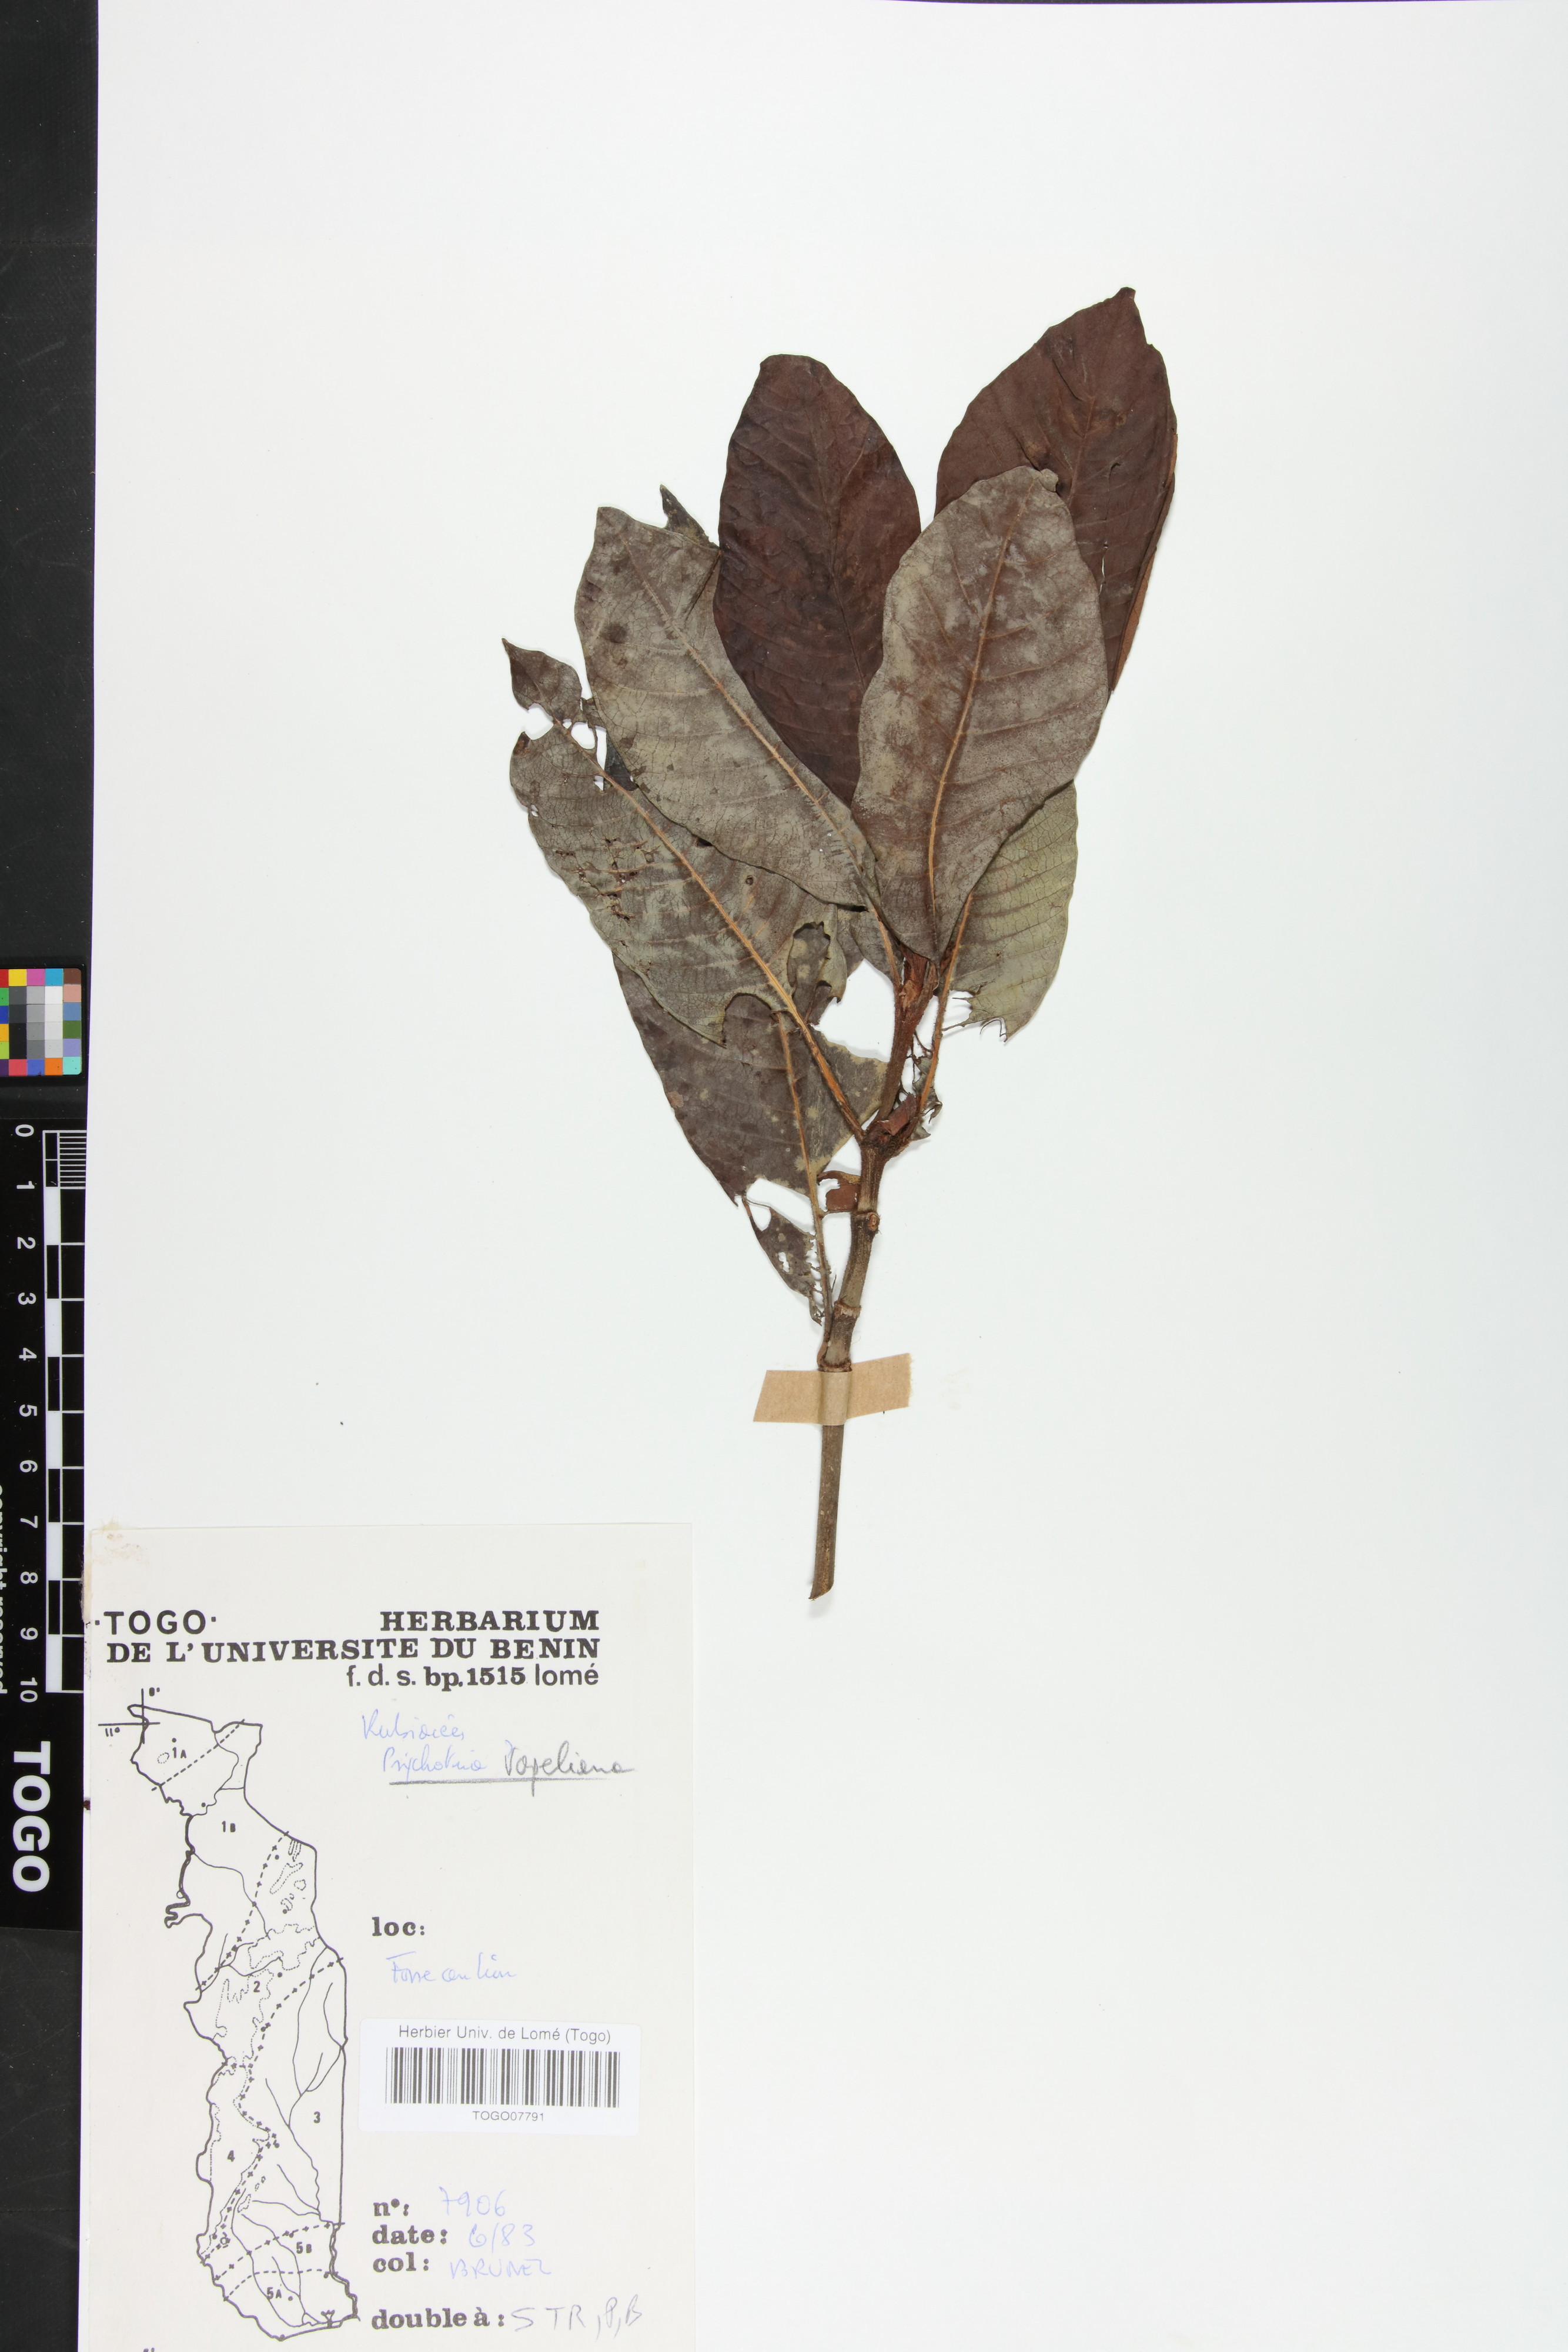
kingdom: Plantae
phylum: Tracheophyta
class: Magnoliopsida
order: Gentianales
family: Rubiaceae
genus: Psychotria
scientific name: Psychotria vogeliana
